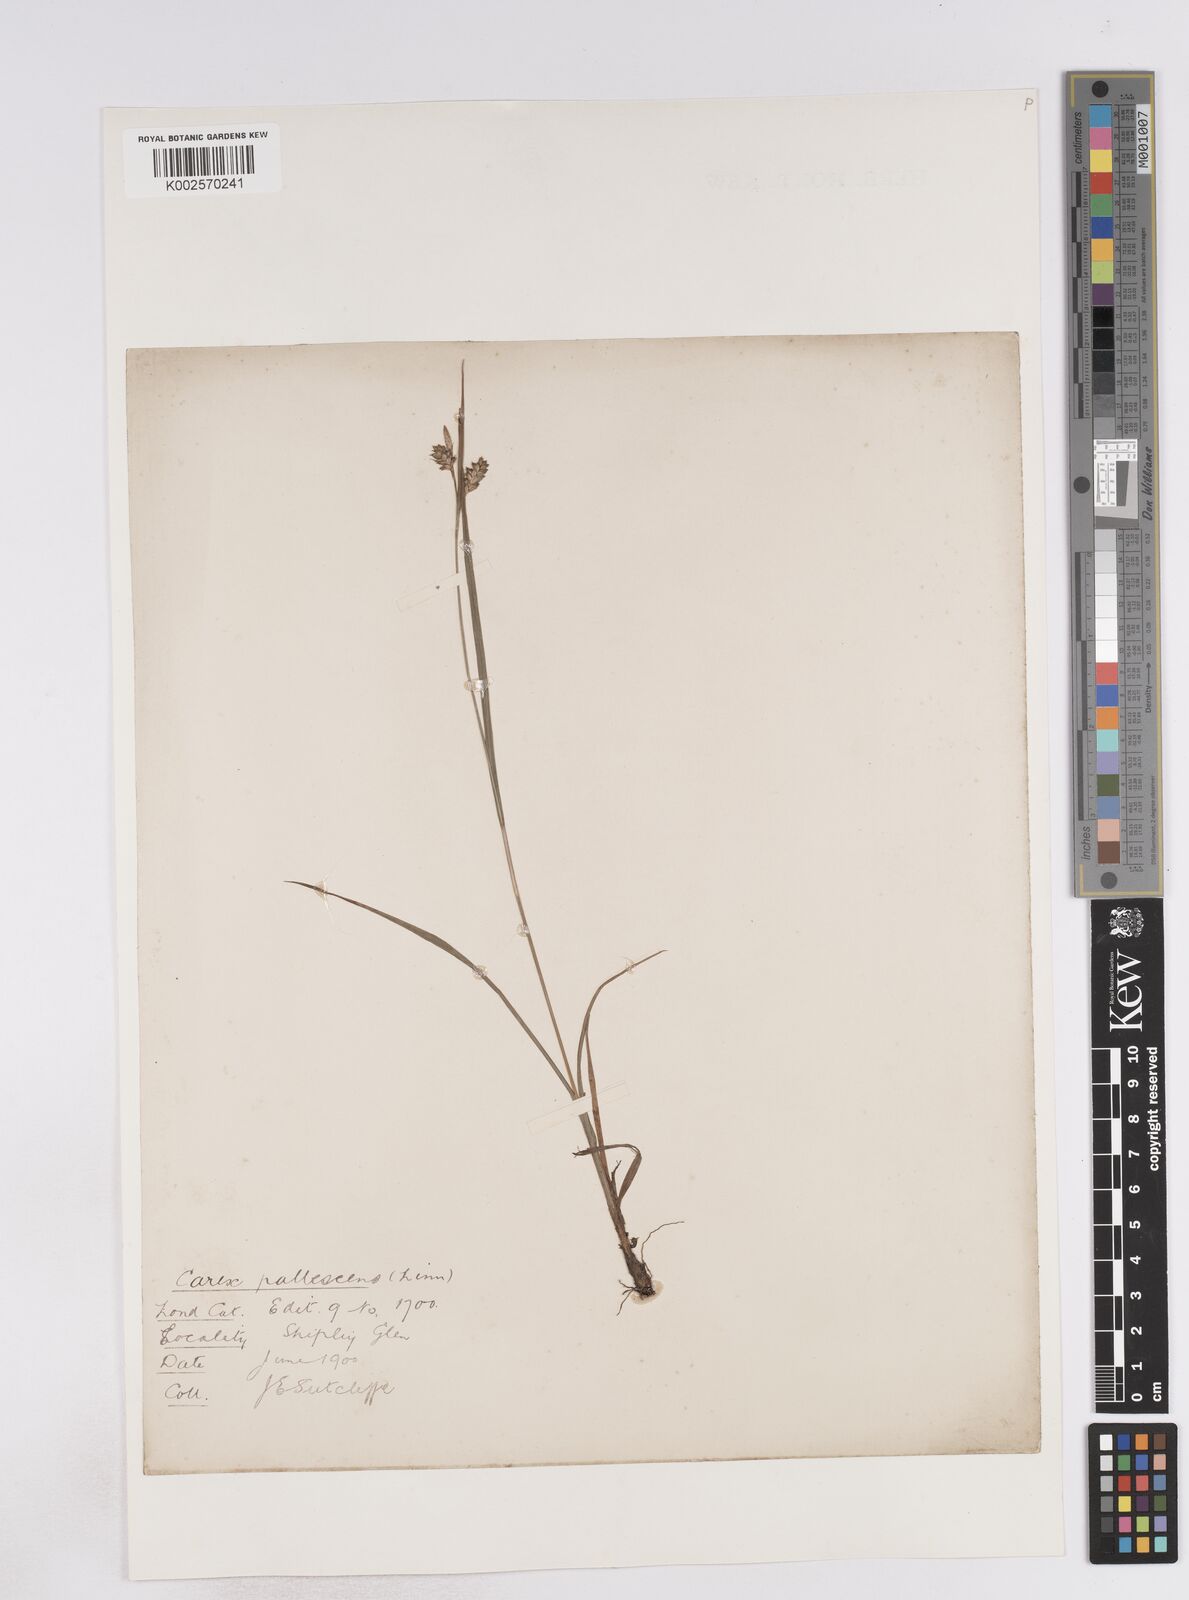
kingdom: Plantae
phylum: Tracheophyta
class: Liliopsida
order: Poales
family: Cyperaceae
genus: Carex
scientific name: Carex pallescens
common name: Pale sedge
